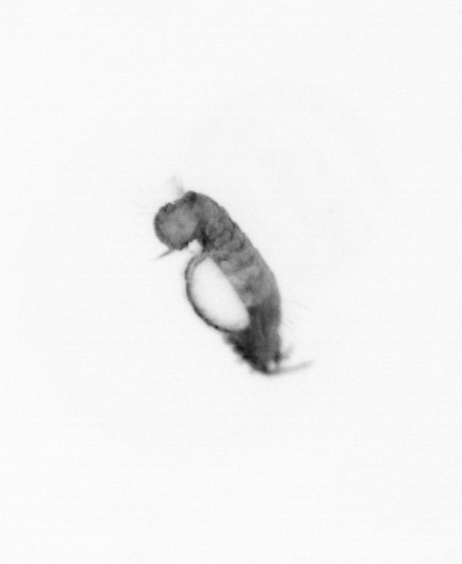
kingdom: Animalia
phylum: Annelida
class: Polychaeta
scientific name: Polychaeta
